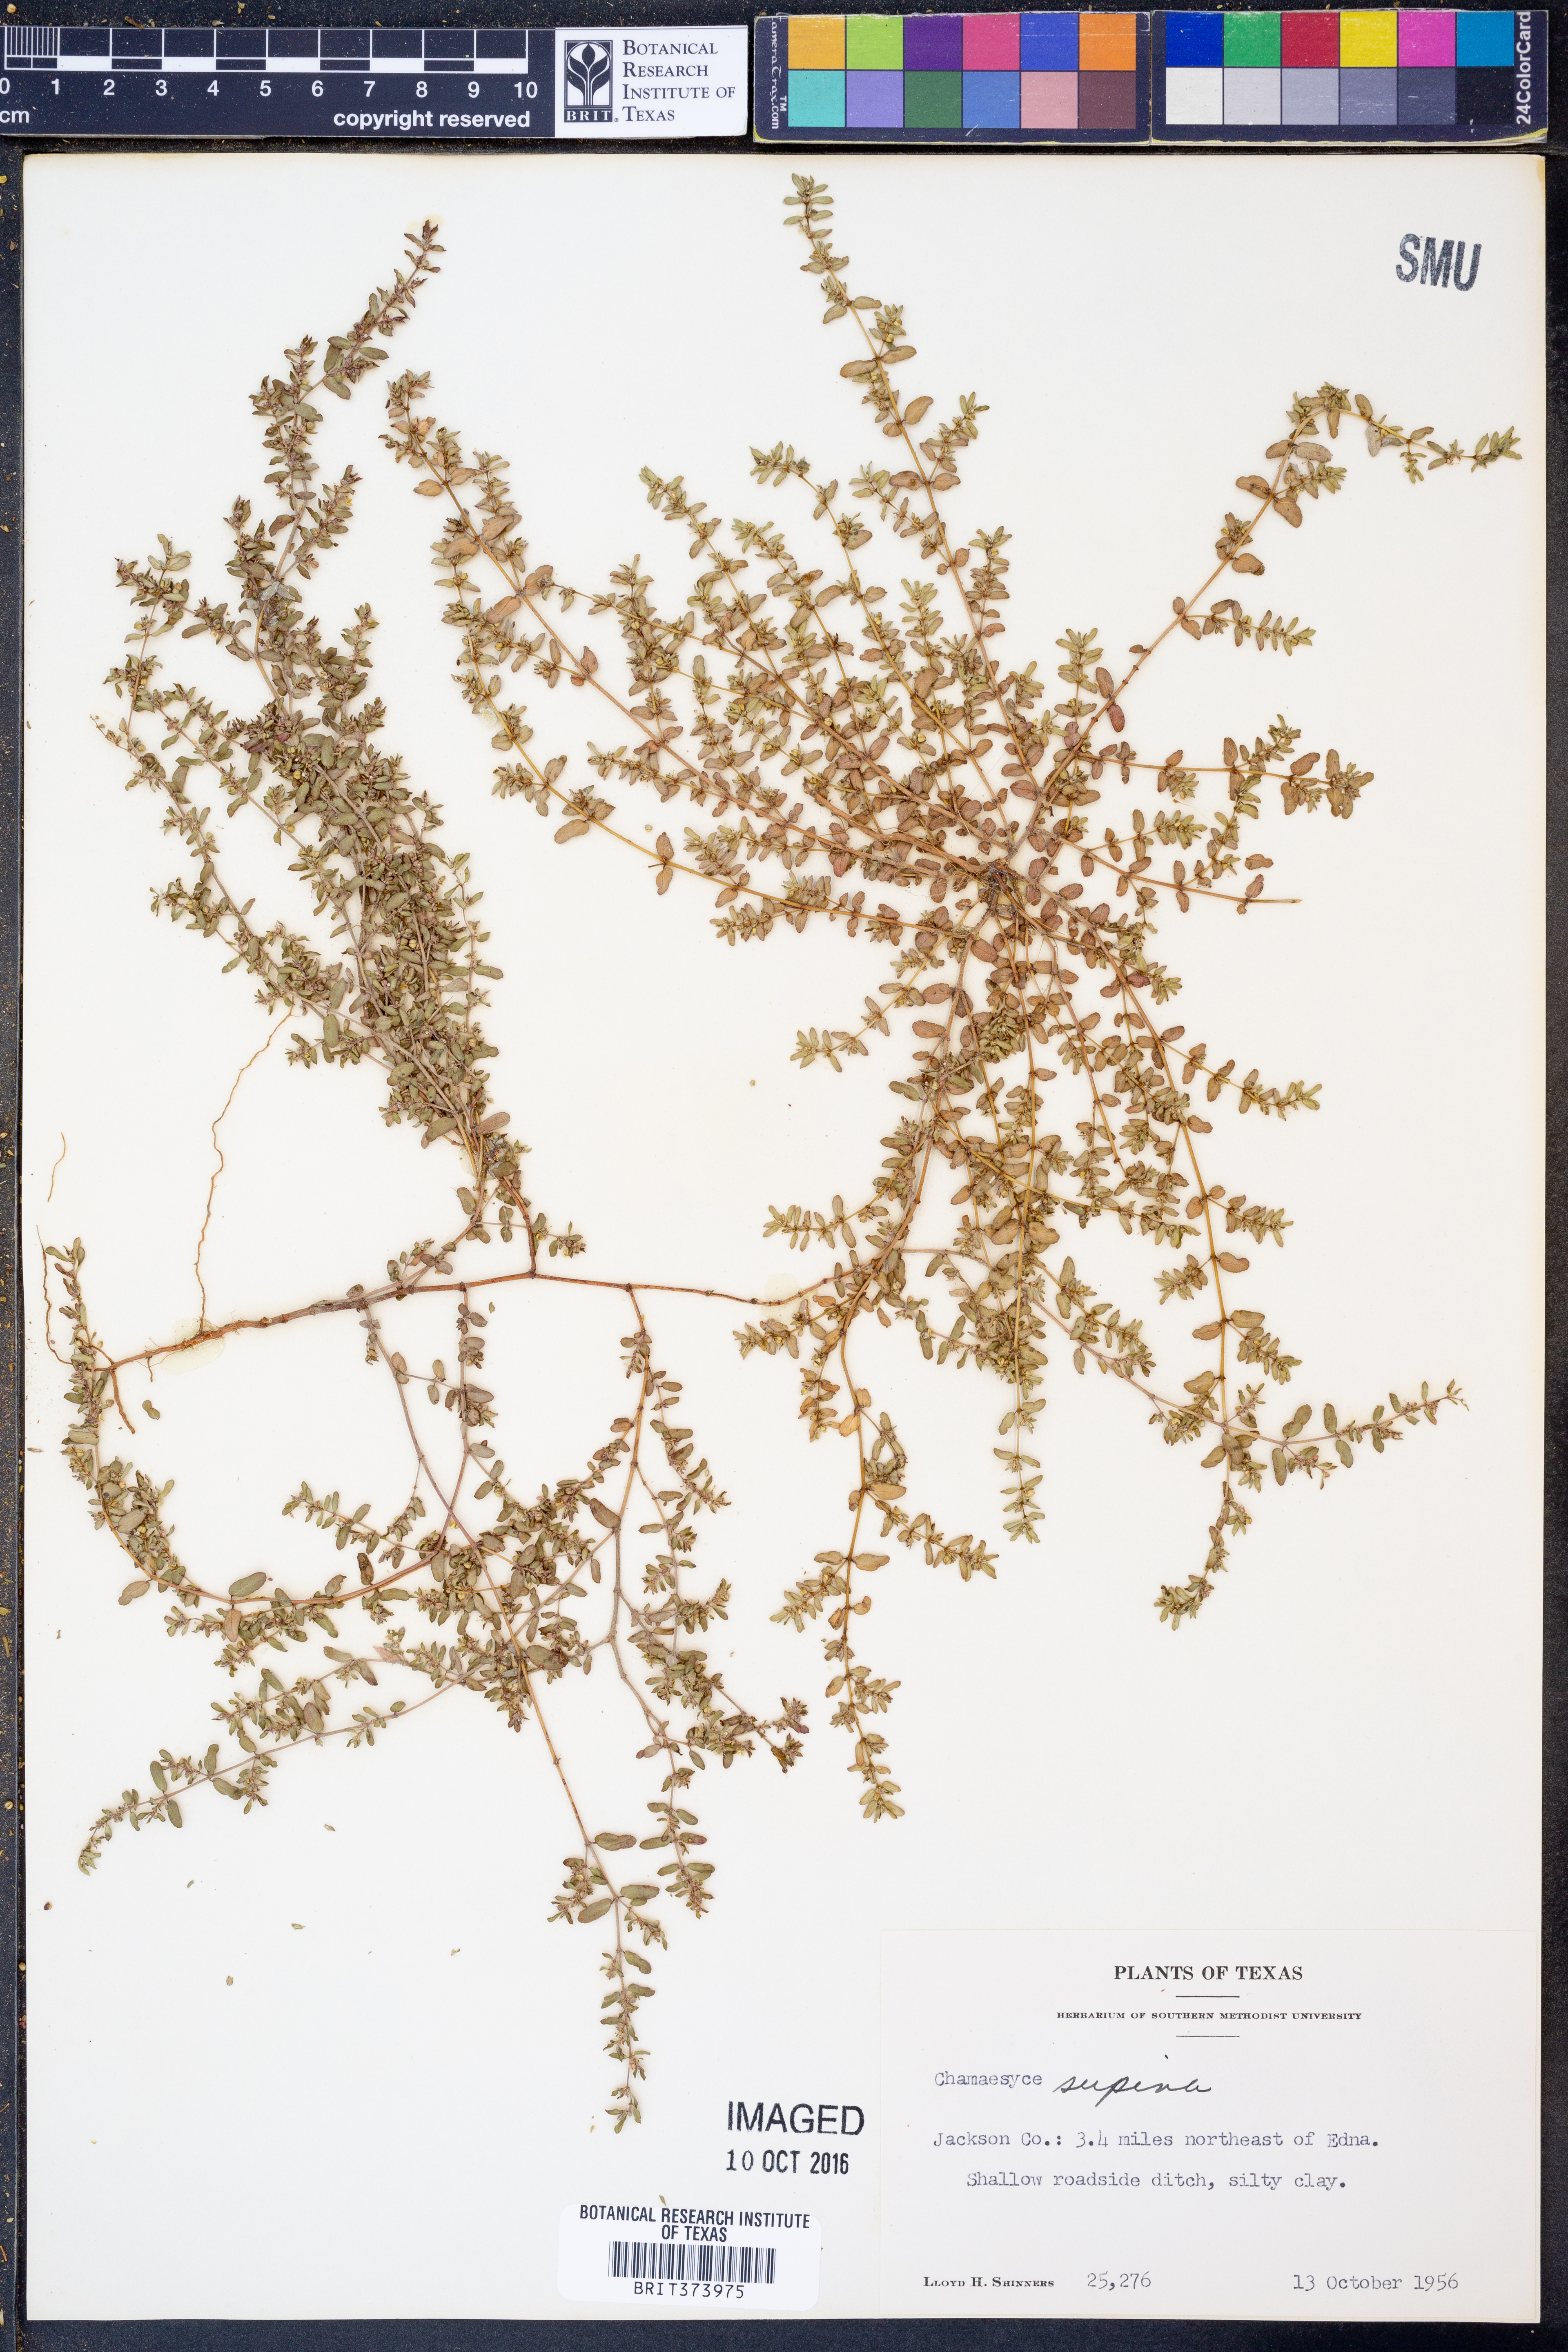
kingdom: Plantae
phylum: Tracheophyta
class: Magnoliopsida
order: Malpighiales
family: Euphorbiaceae
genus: Euphorbia
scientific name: Euphorbia maculata
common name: Spotted spurge
